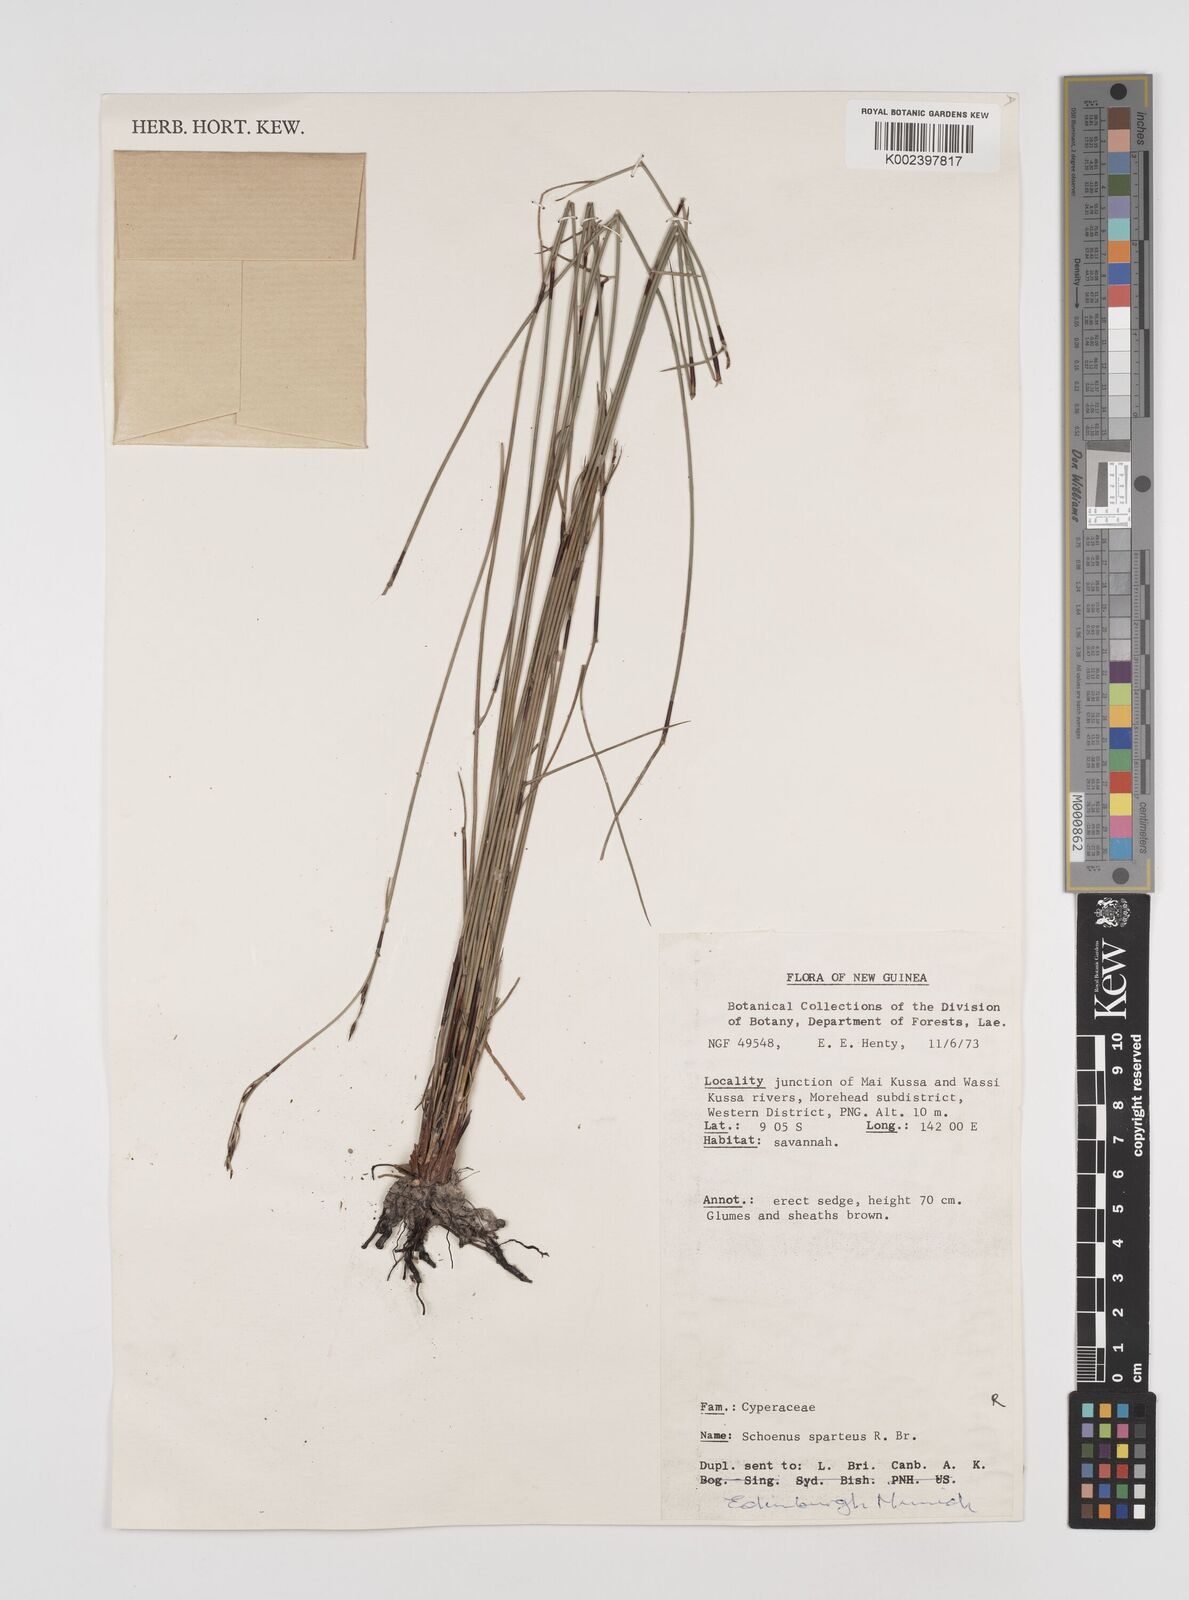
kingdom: Plantae
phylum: Tracheophyta
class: Liliopsida
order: Poales
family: Cyperaceae
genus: Schoenus
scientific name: Schoenus sparteus
